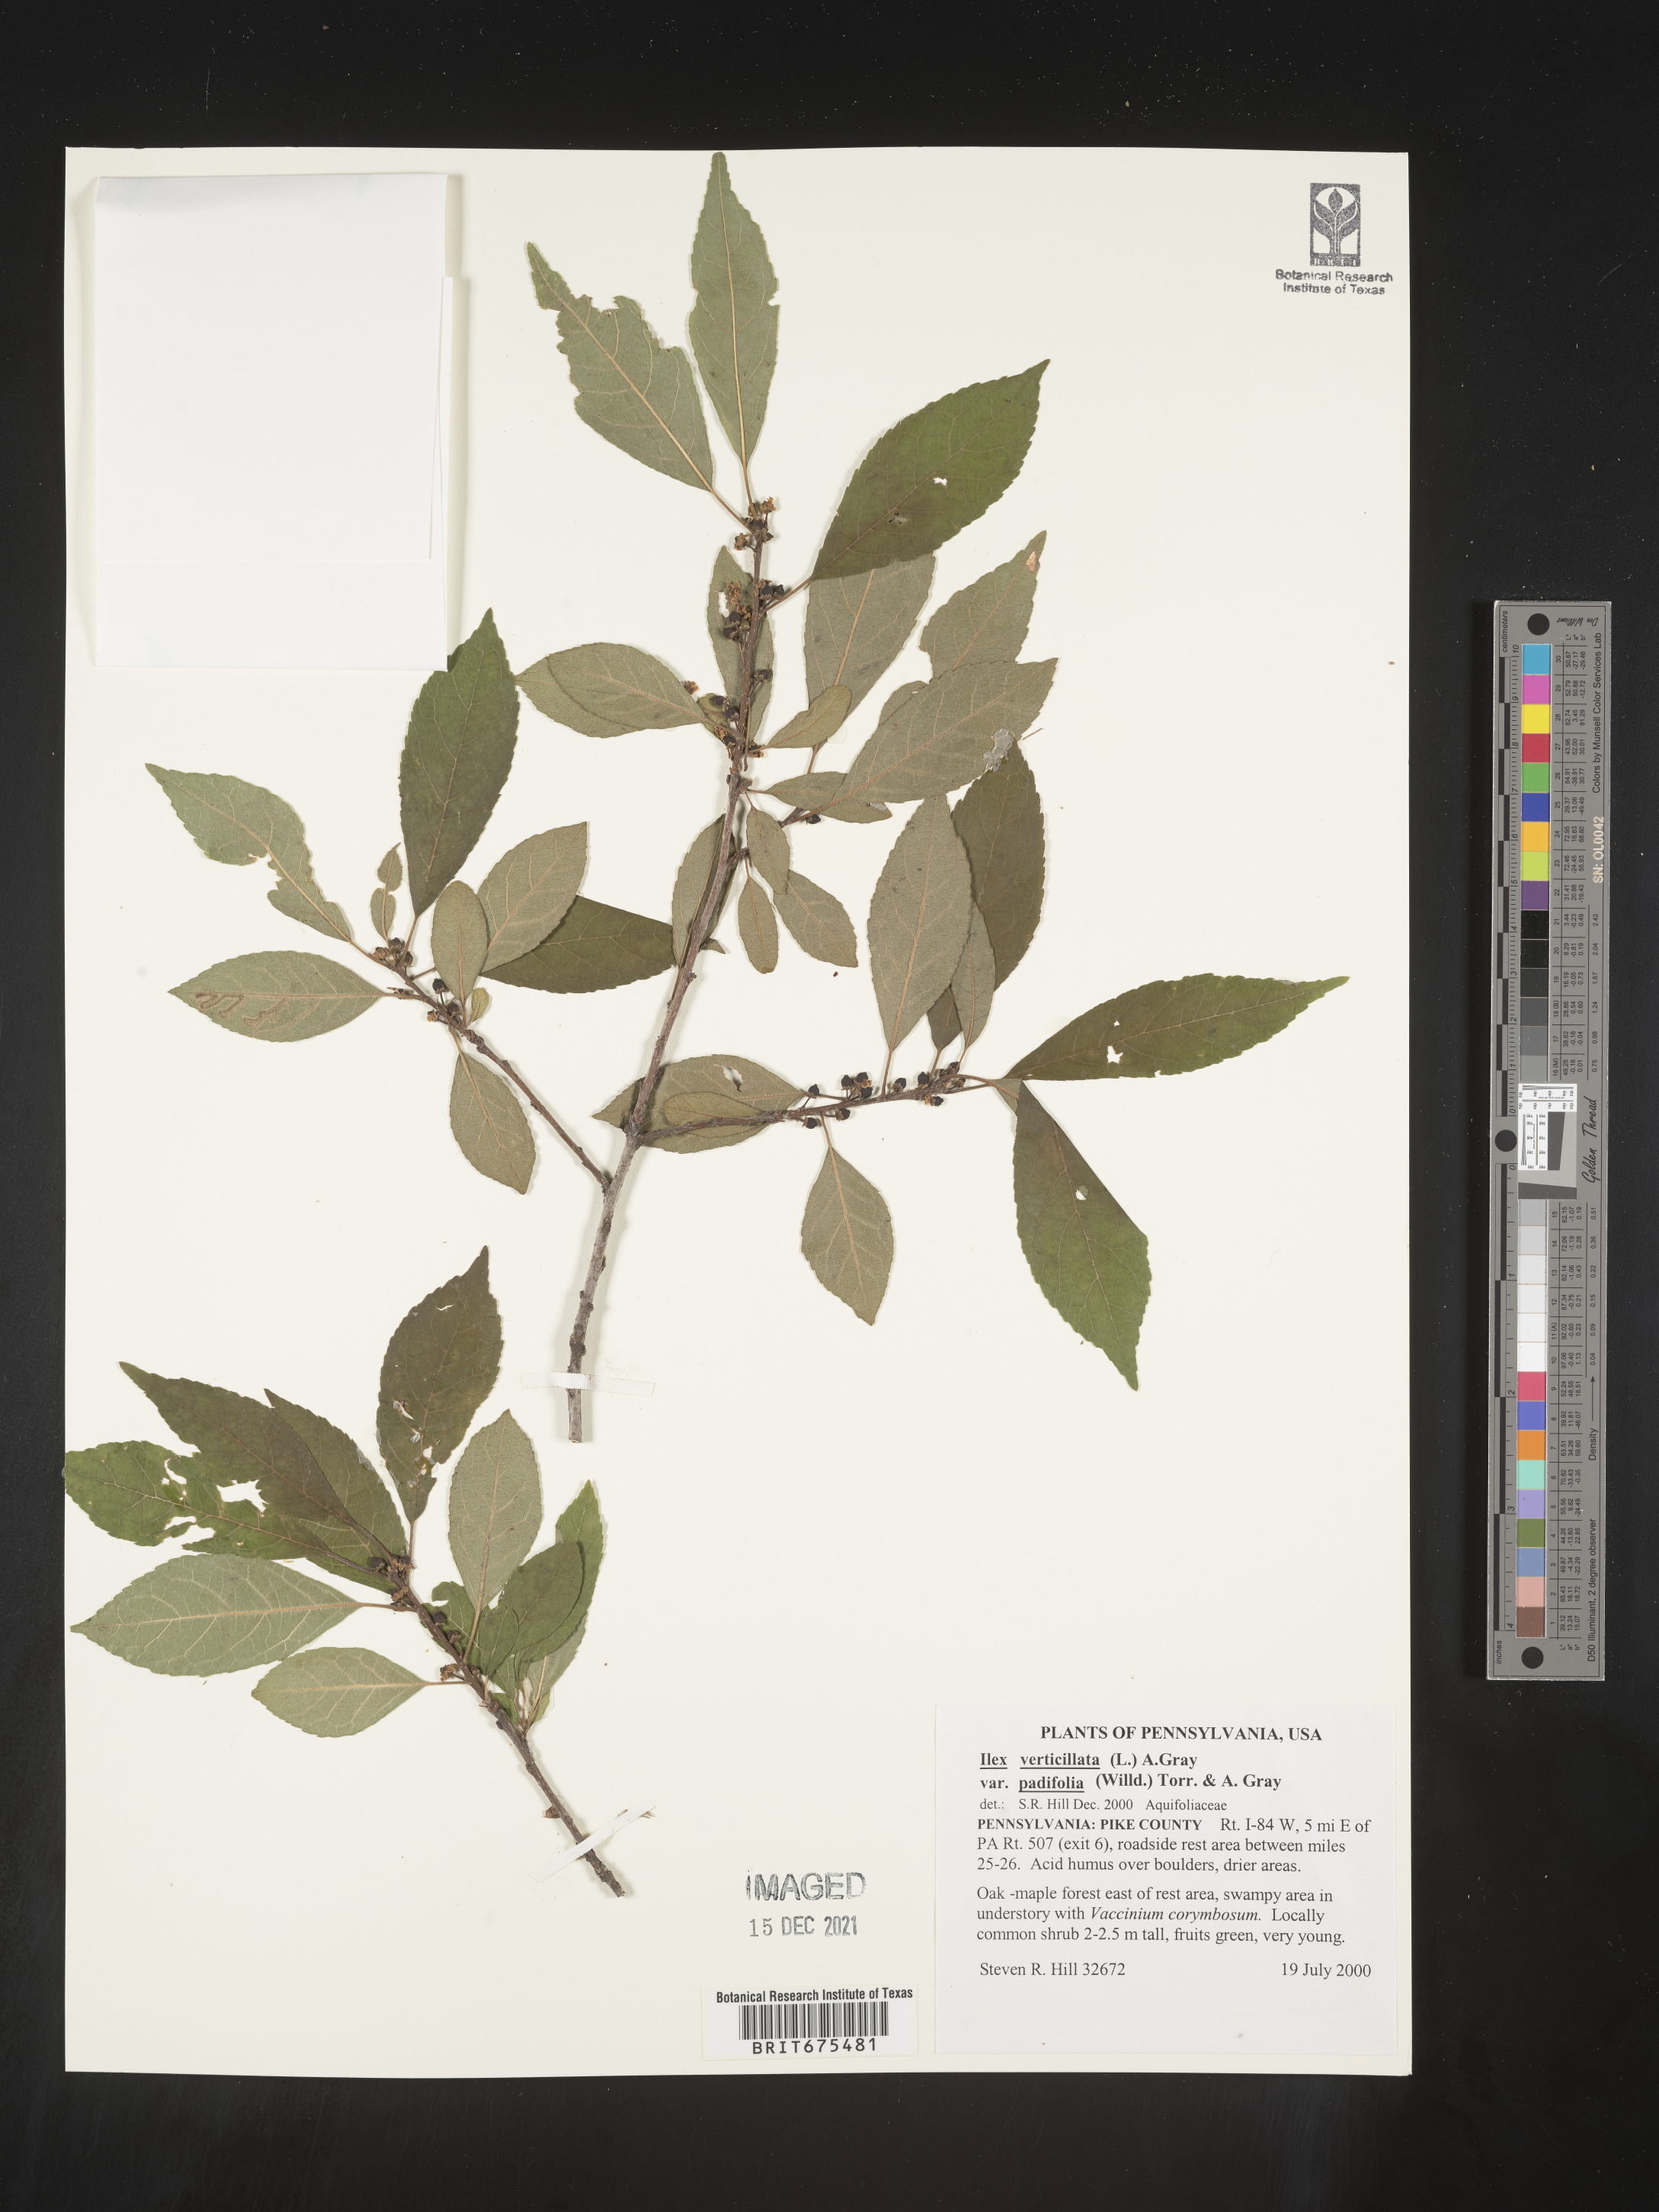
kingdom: Plantae
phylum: Tracheophyta
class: Magnoliopsida
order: Aquifoliales
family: Aquifoliaceae
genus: Ilex
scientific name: Ilex verticillata
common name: Virginia winterberry
